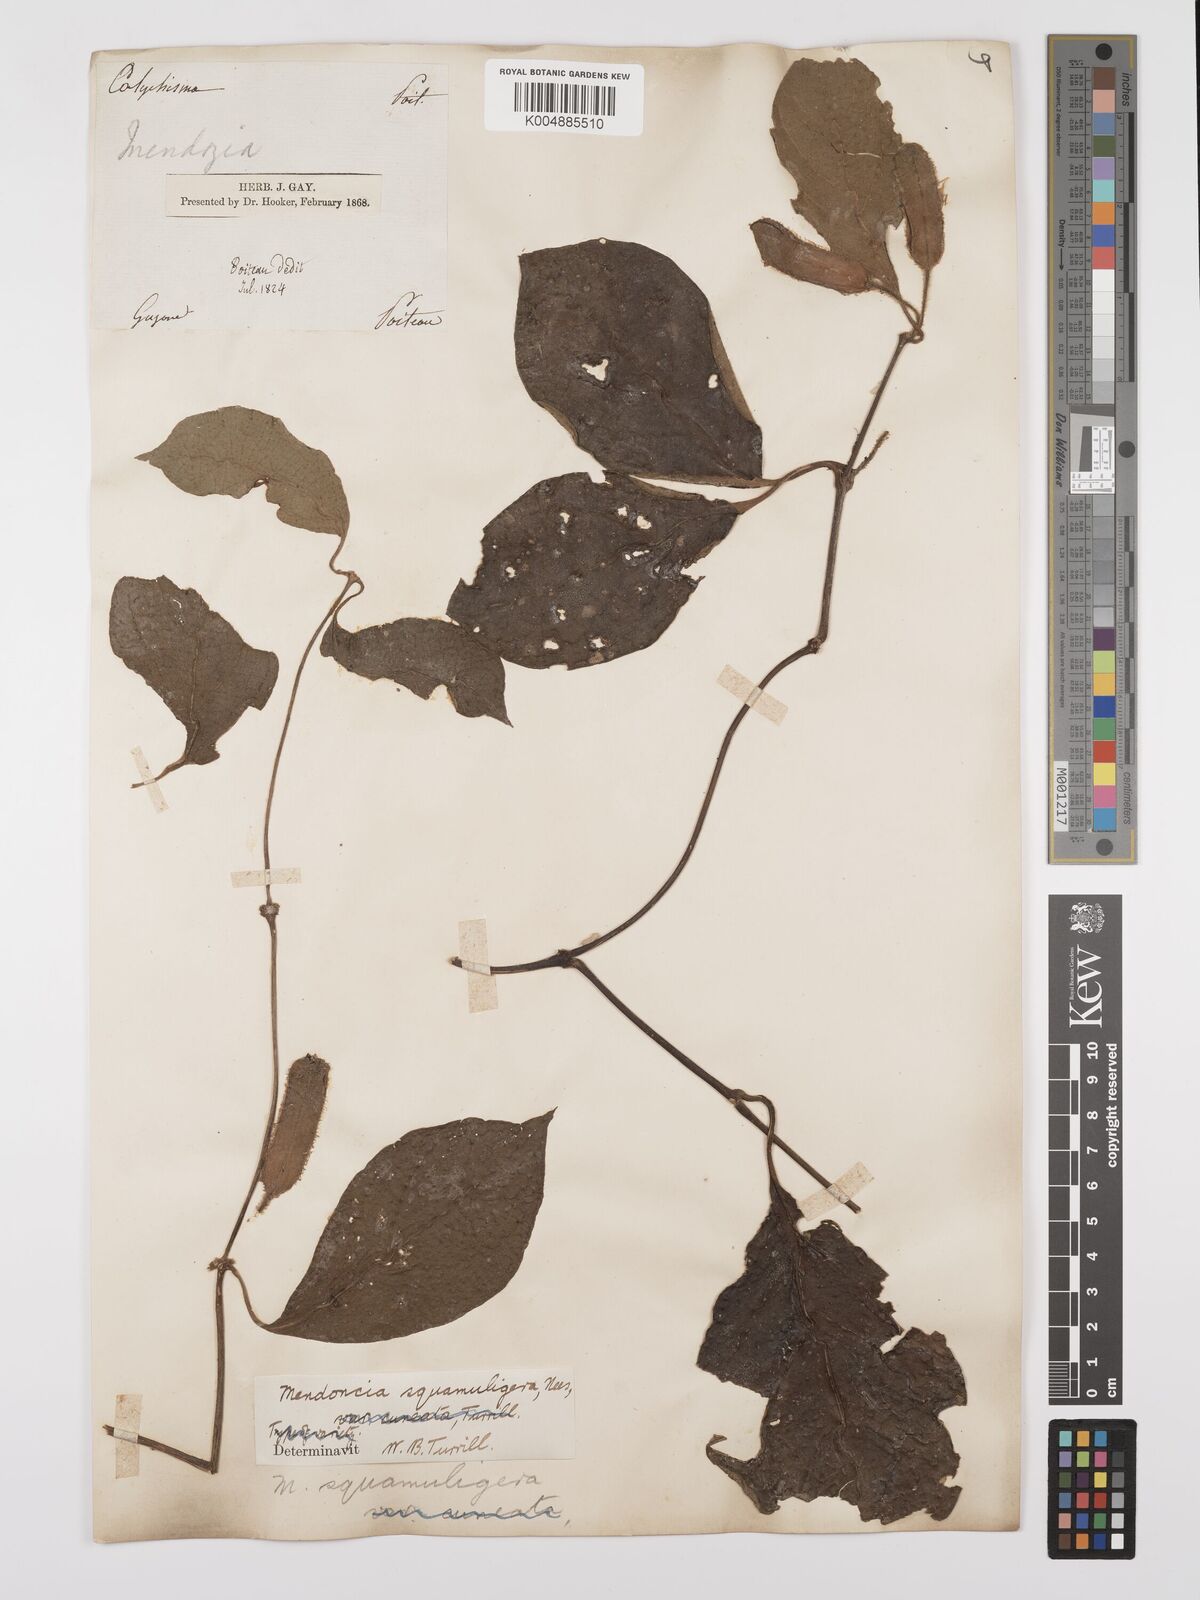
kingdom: Plantae
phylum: Tracheophyta
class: Magnoliopsida
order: Lamiales
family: Acanthaceae
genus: Mendoncia
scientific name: Mendoncia squamuligera
